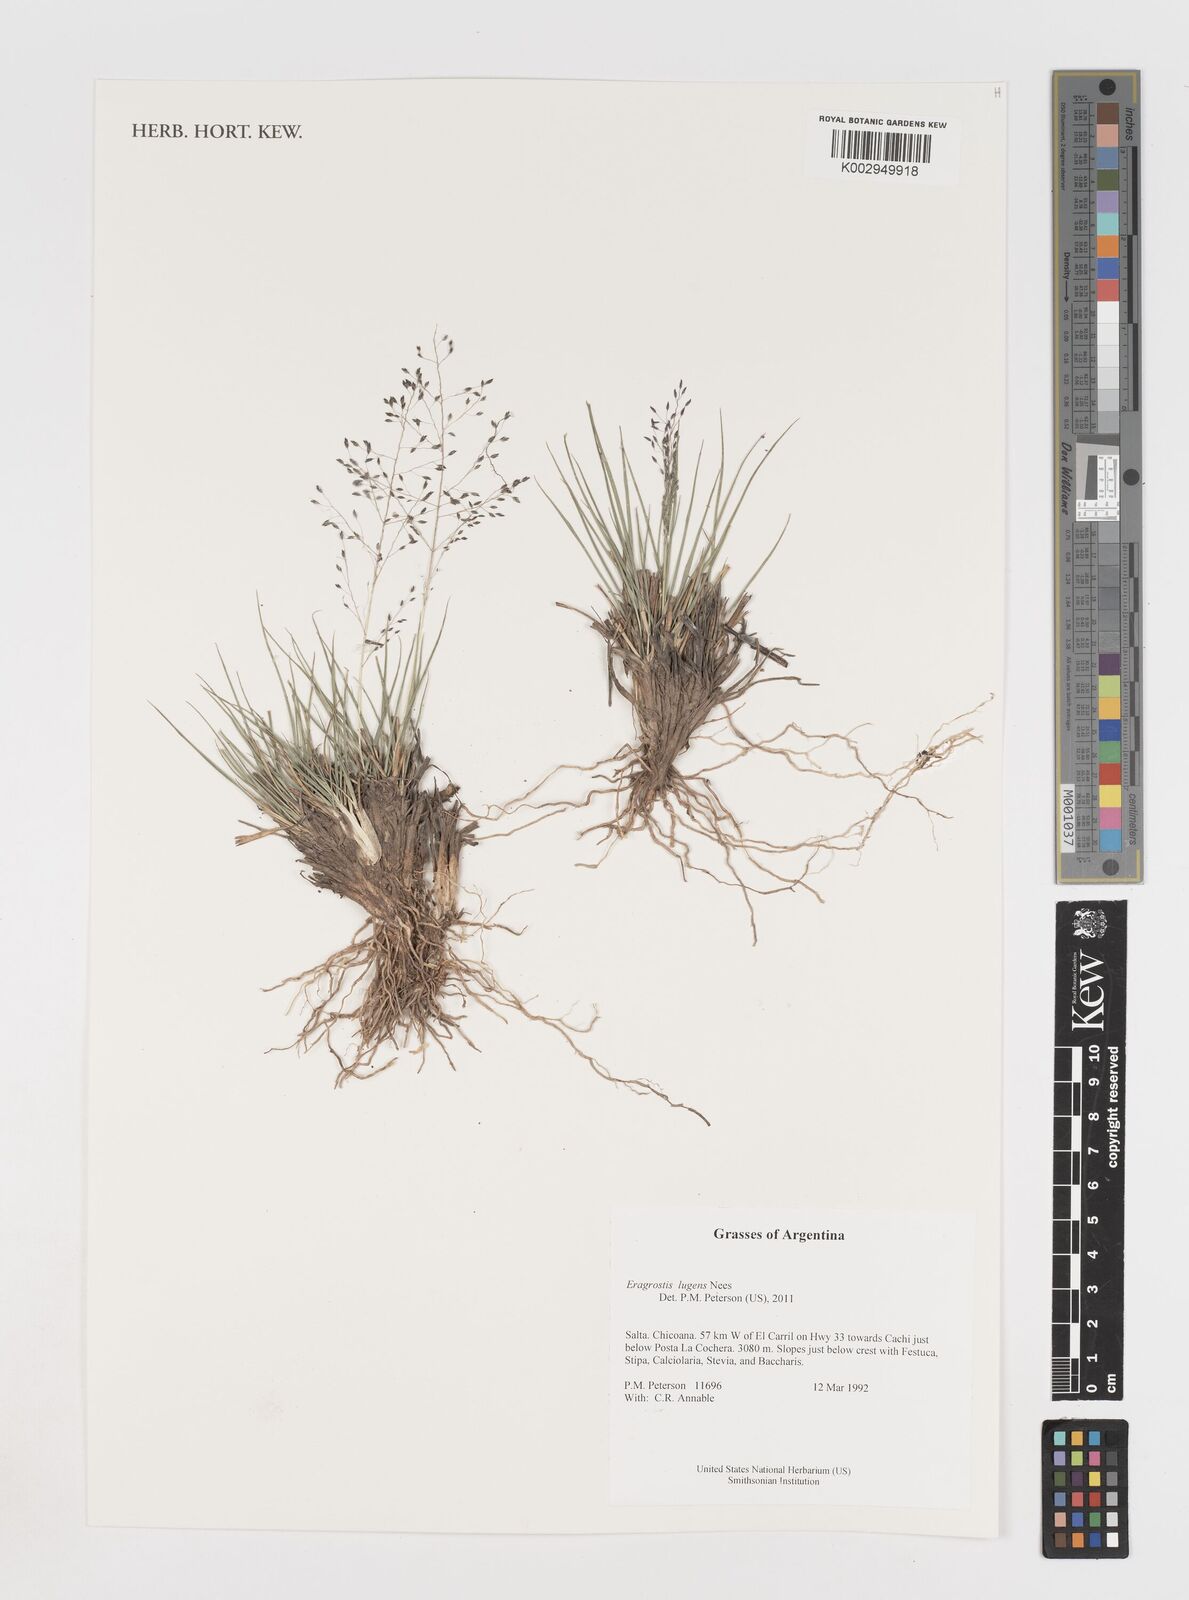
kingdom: Plantae
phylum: Tracheophyta
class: Liliopsida
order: Poales
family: Poaceae
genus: Eragrostis
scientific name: Eragrostis lugens
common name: Mourning love grass
